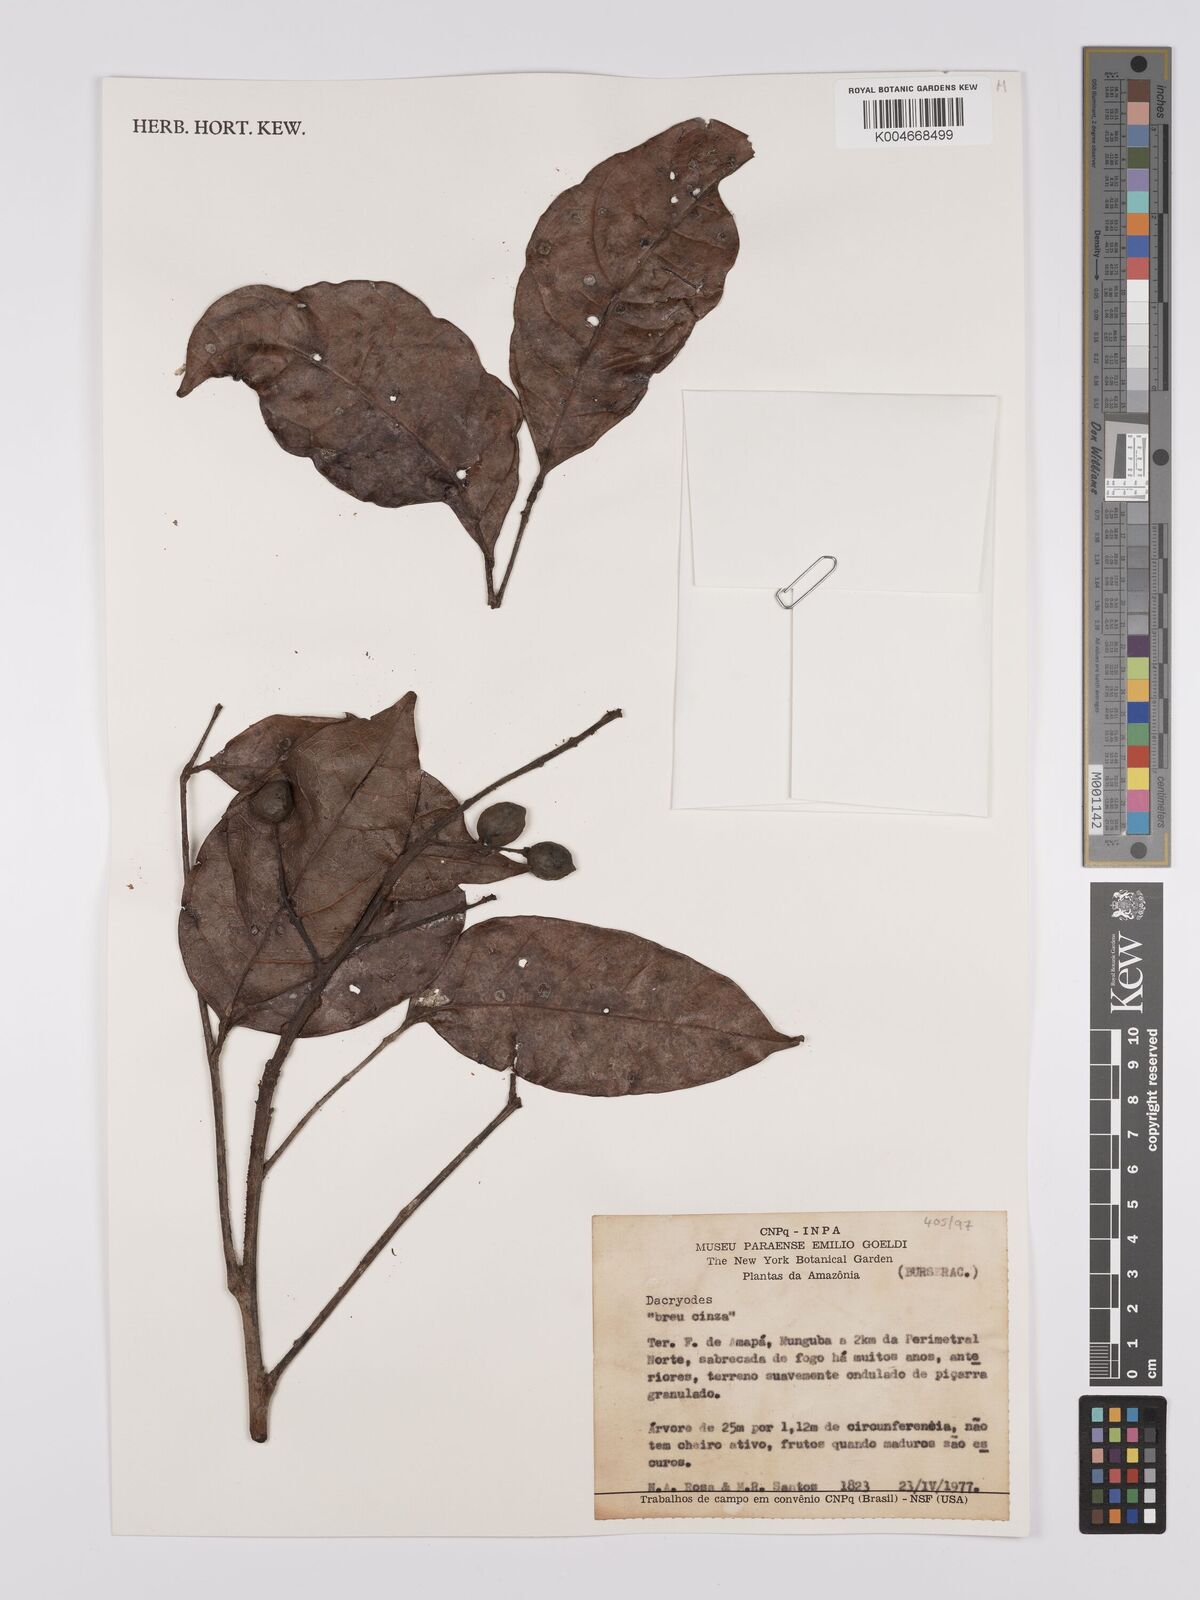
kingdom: Plantae
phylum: Tracheophyta
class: Magnoliopsida
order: Sapindales
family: Burseraceae
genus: Dacryodes
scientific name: Dacryodes
